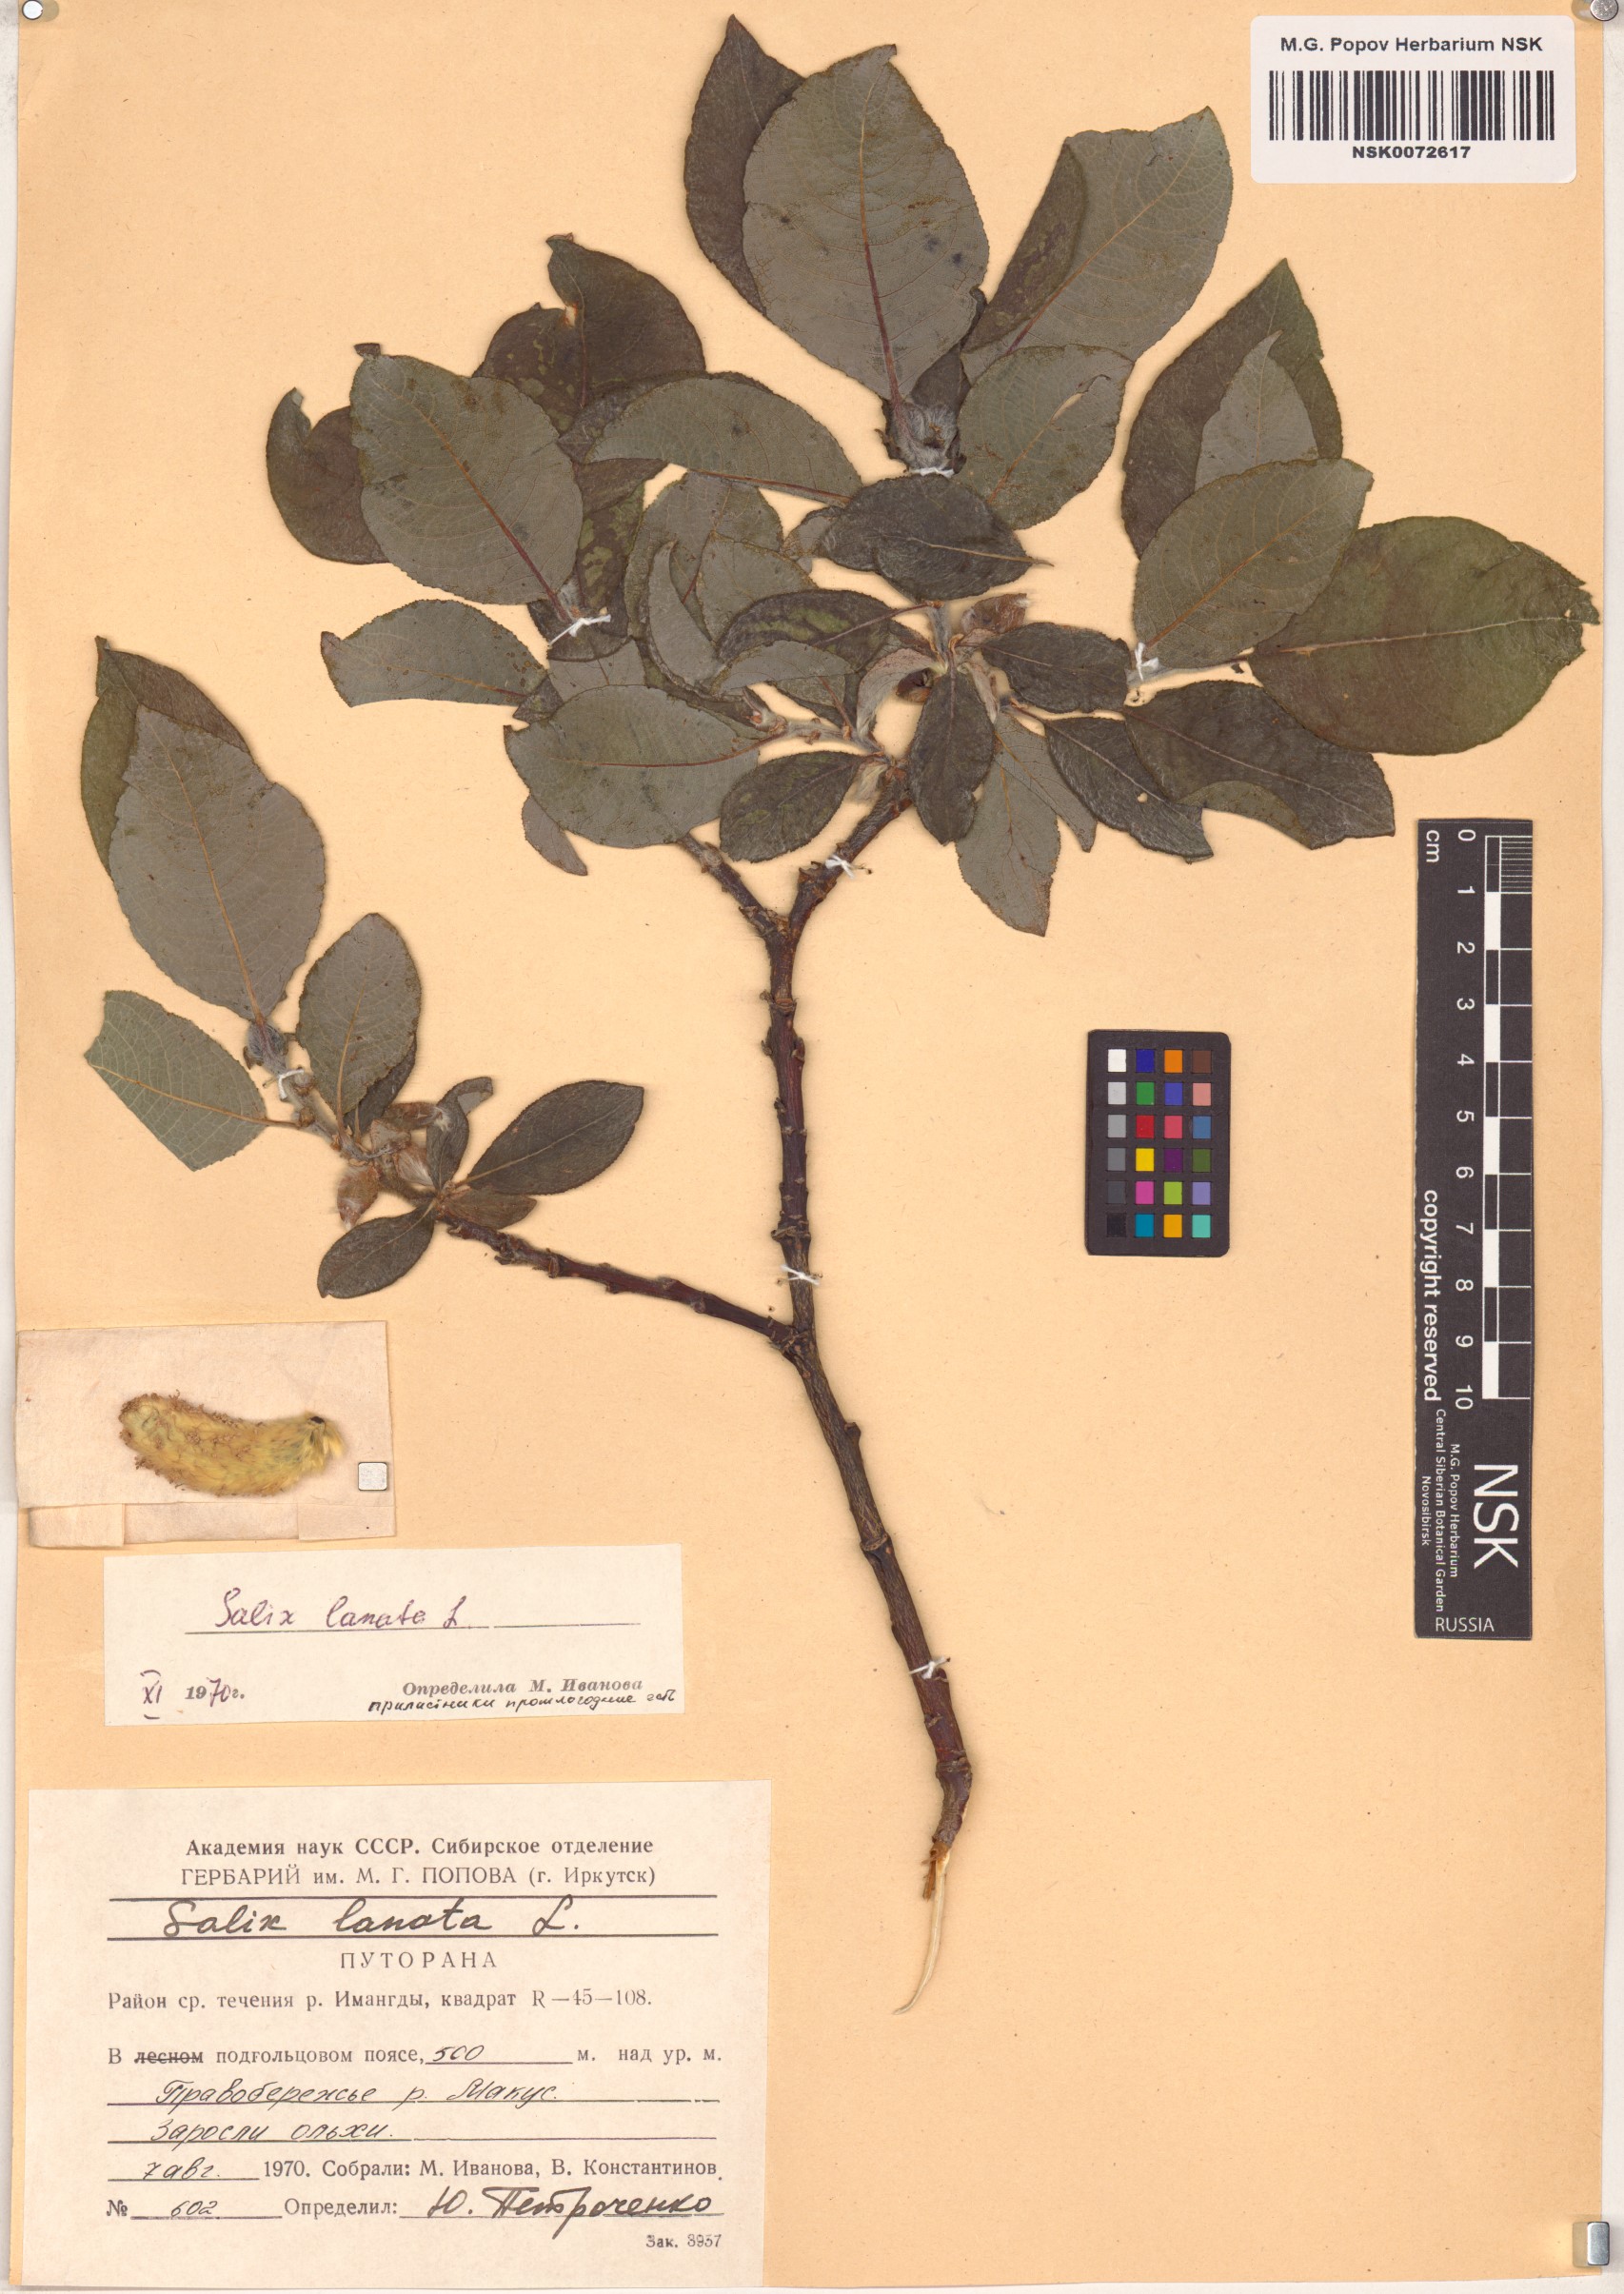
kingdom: Plantae
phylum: Tracheophyta
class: Magnoliopsida
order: Malpighiales
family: Salicaceae
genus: Salix
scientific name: Salix lanata
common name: Woolly willow
